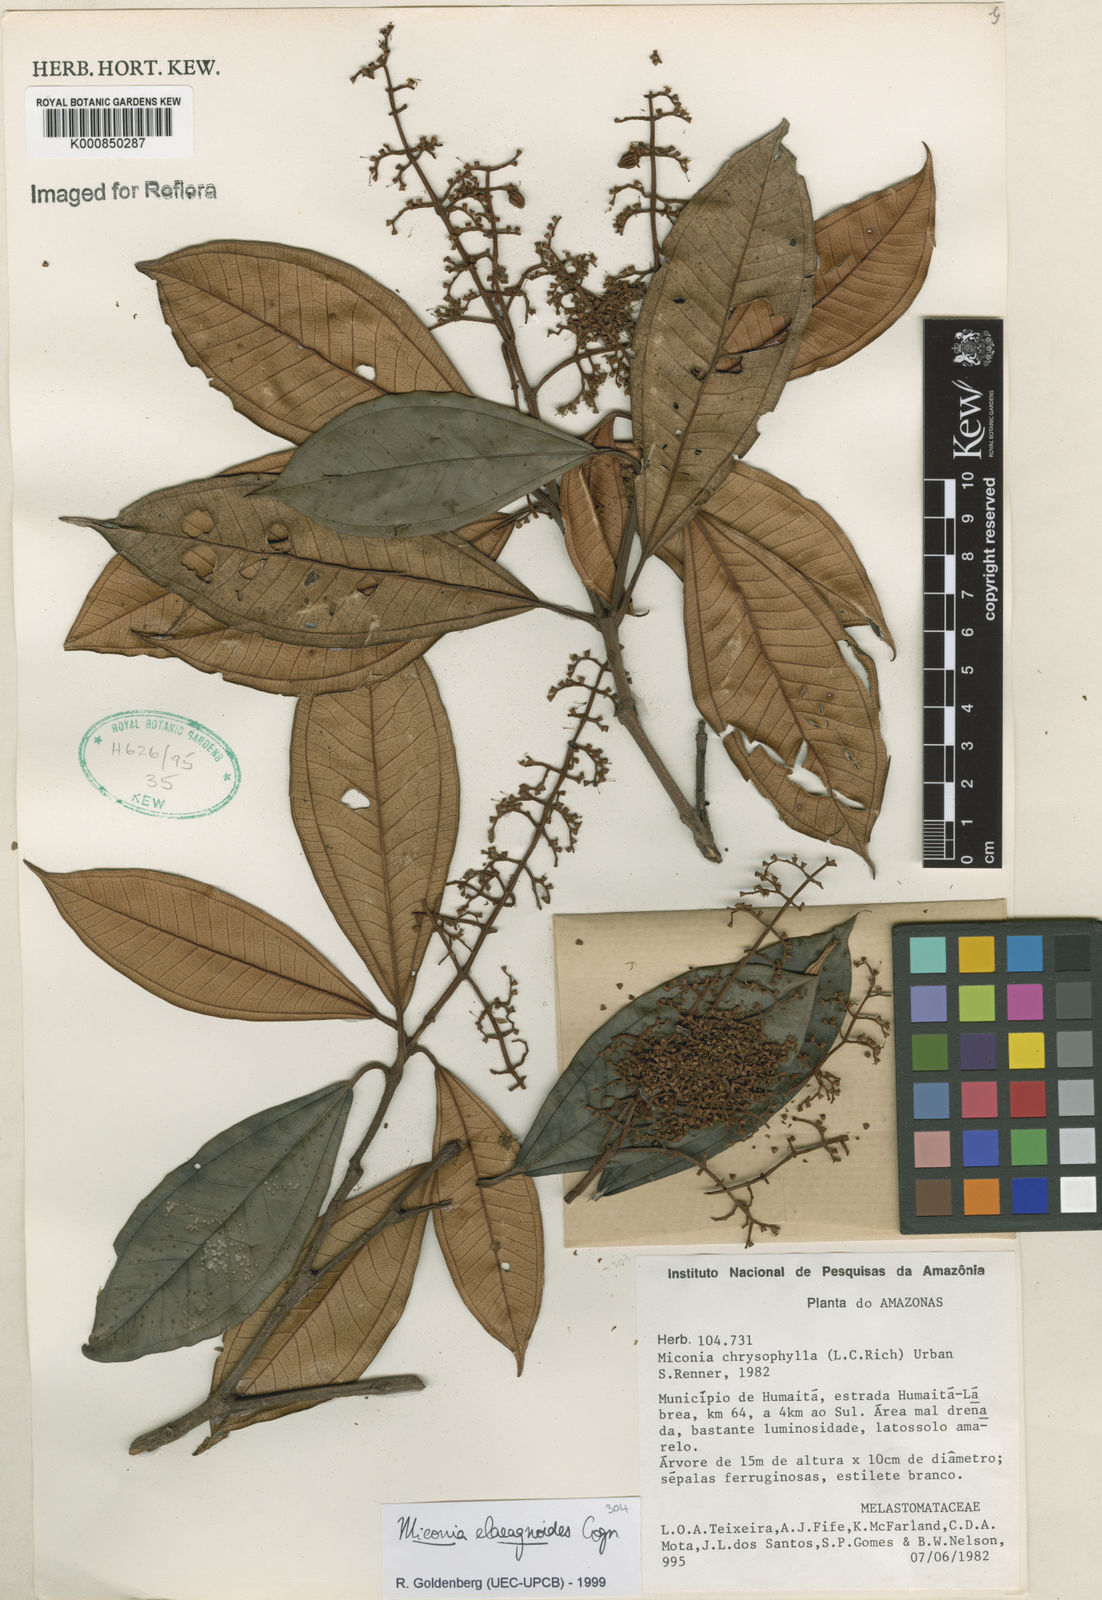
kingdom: Plantae
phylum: Tracheophyta
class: Magnoliopsida
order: Myrtales
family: Melastomataceae
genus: Miconia
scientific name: Miconia
